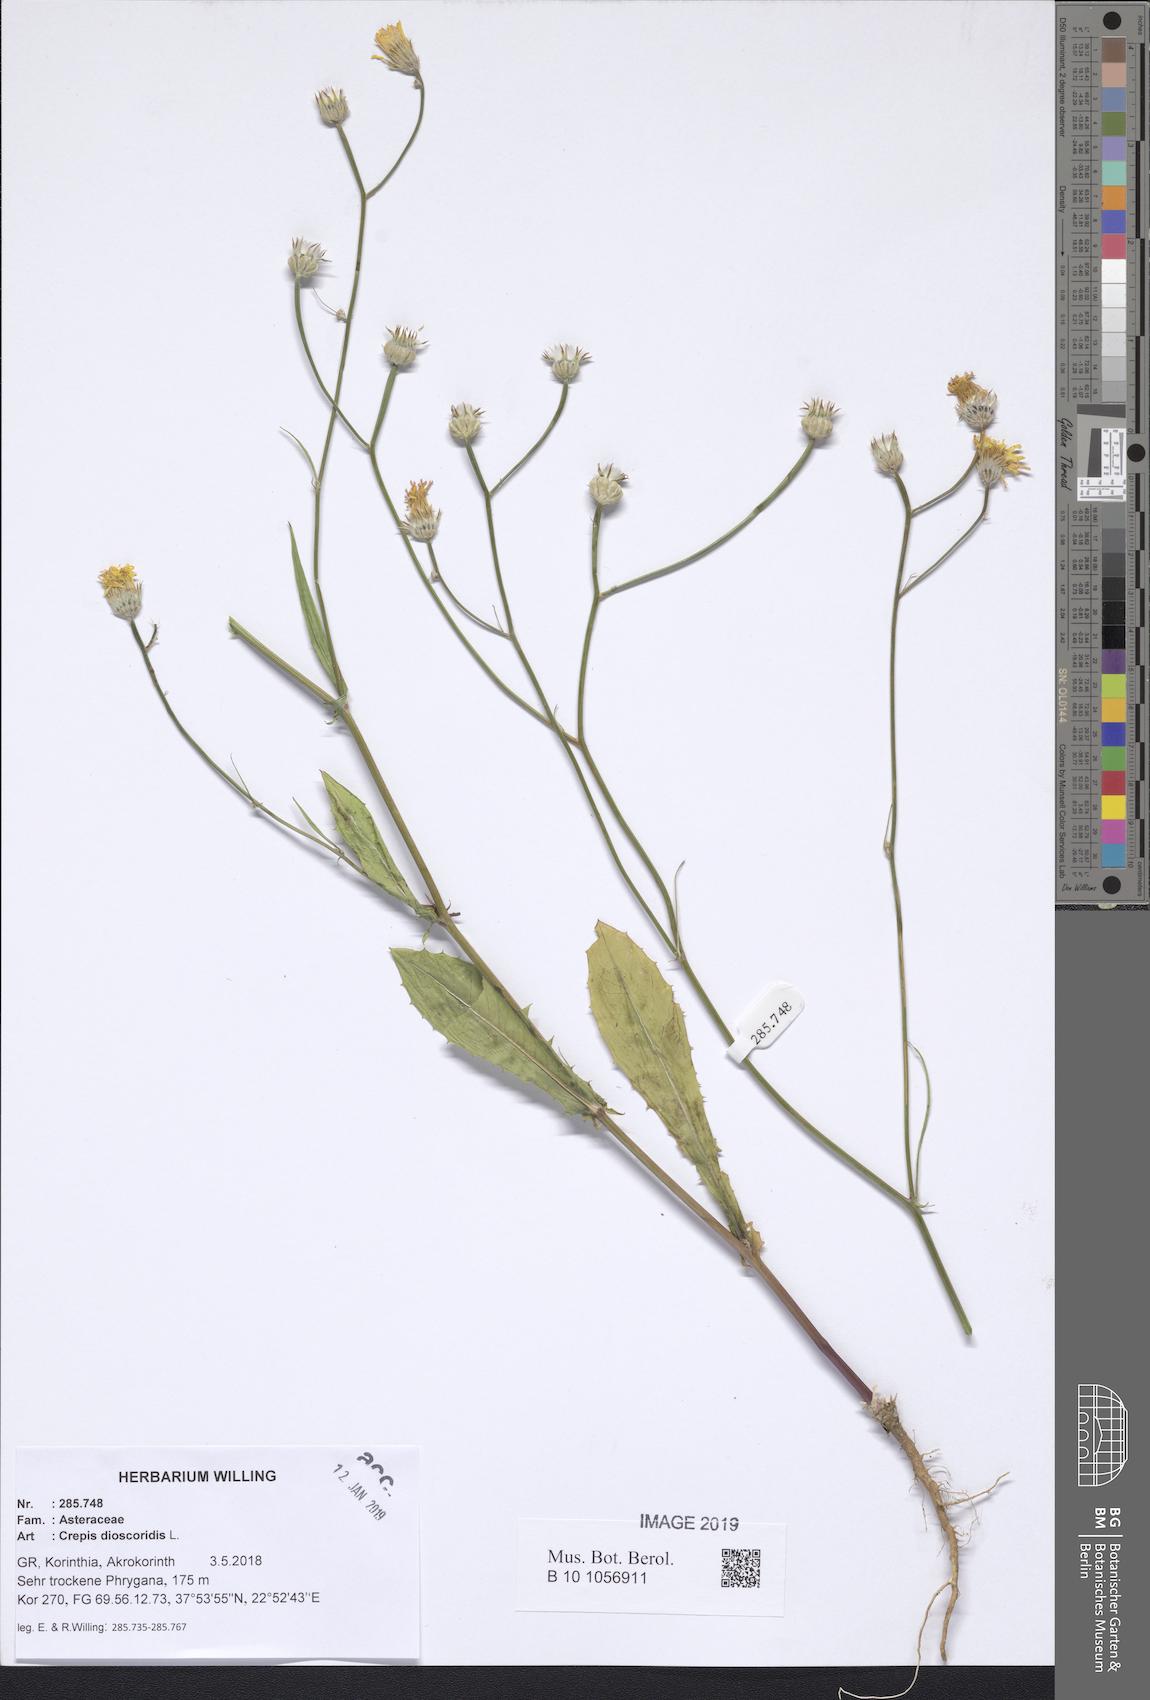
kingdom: Plantae
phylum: Tracheophyta
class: Magnoliopsida
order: Asterales
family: Asteraceae
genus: Crepis
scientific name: Crepis dioscoridis
